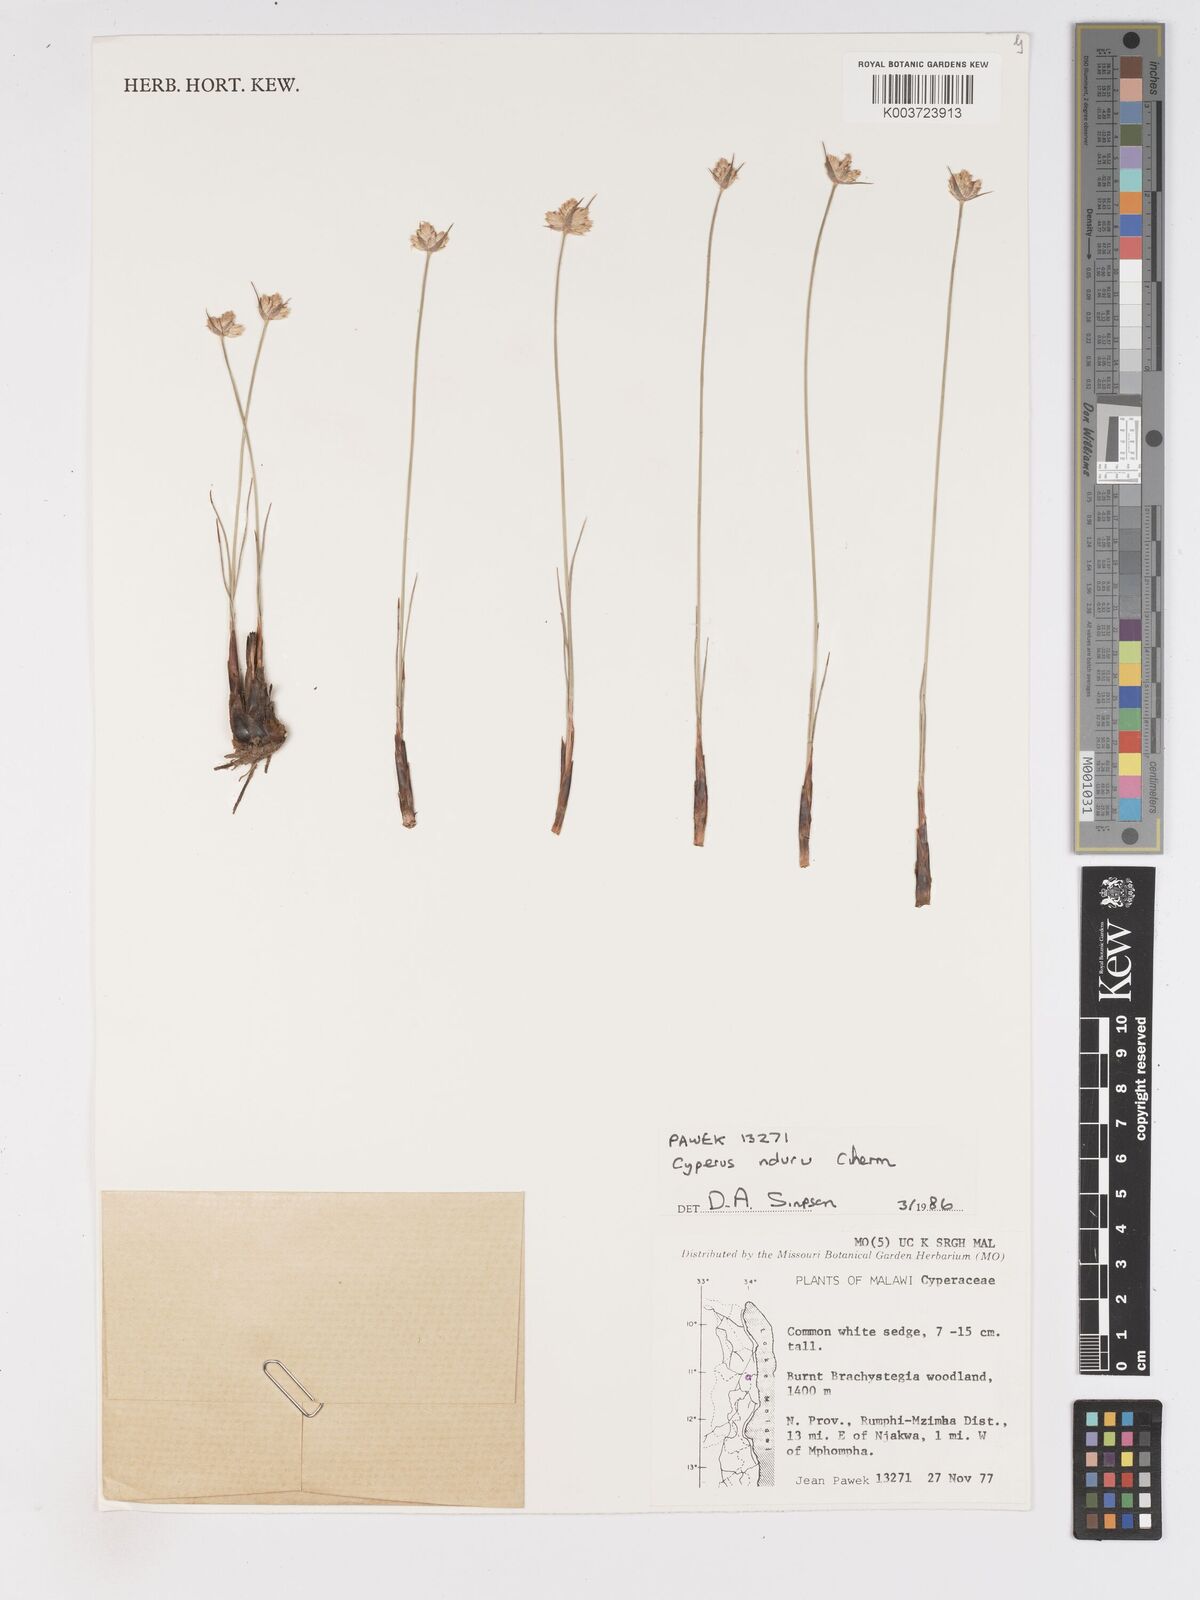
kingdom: Plantae
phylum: Tracheophyta
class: Liliopsida
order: Poales
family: Cyperaceae
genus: Cyperus
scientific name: Cyperus nduru
